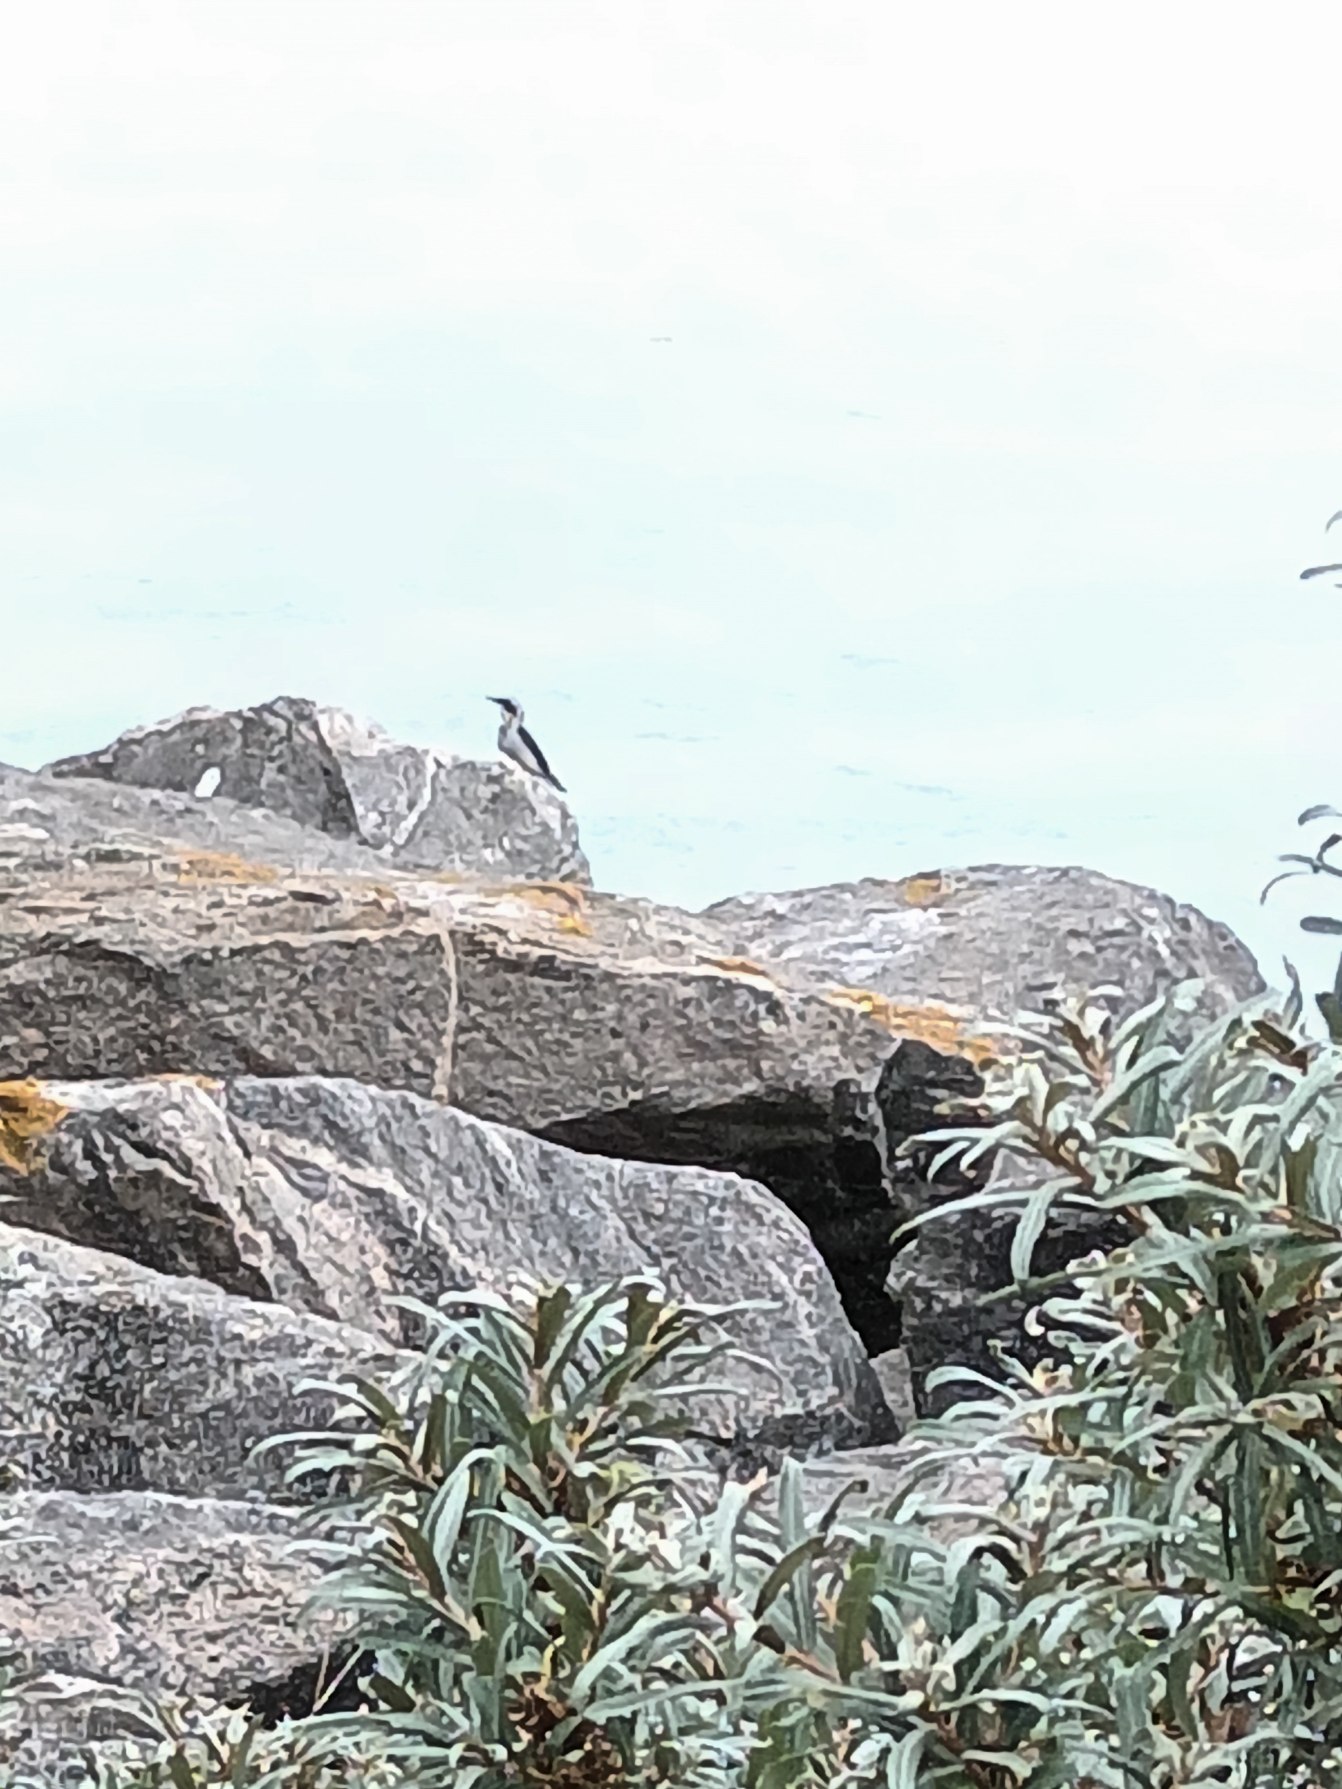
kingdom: Animalia
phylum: Chordata
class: Aves
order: Passeriformes
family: Muscicapidae
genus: Oenanthe
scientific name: Oenanthe oenanthe
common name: Stenpikker
